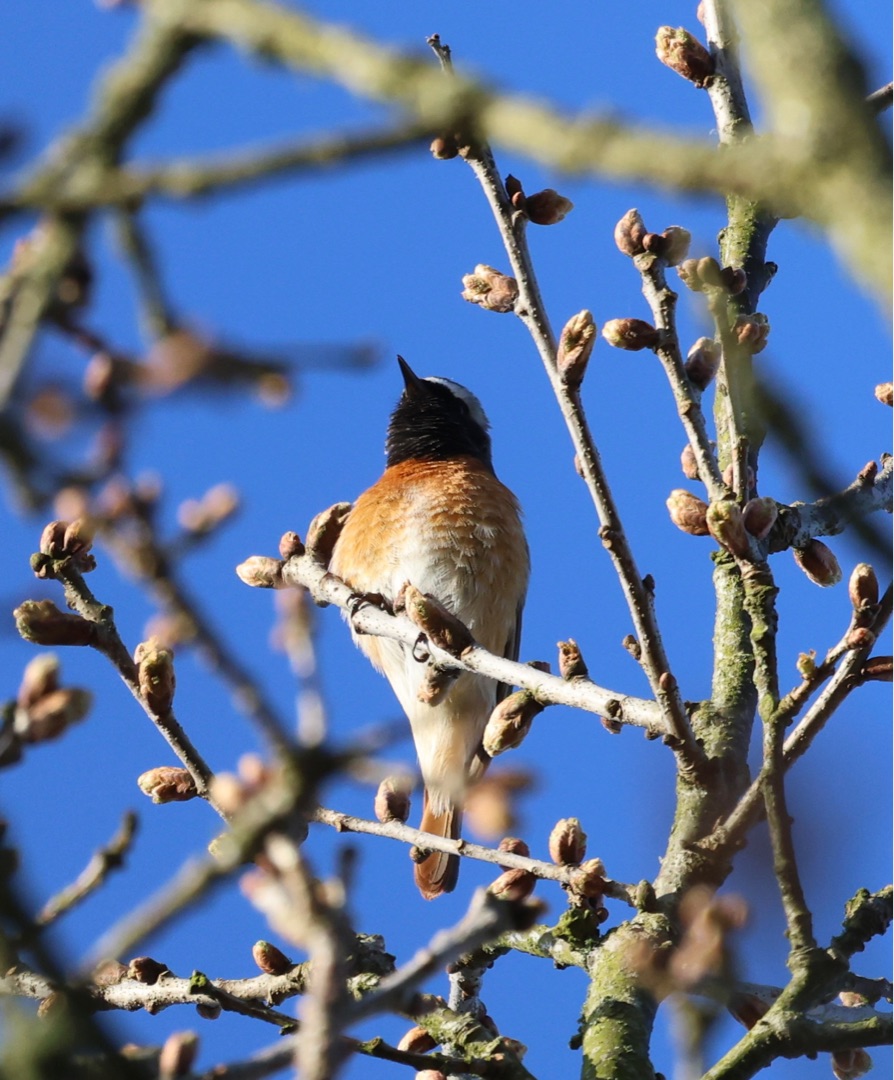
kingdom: Animalia
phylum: Chordata
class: Aves
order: Passeriformes
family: Muscicapidae
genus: Phoenicurus
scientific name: Phoenicurus phoenicurus
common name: Rødstjert
